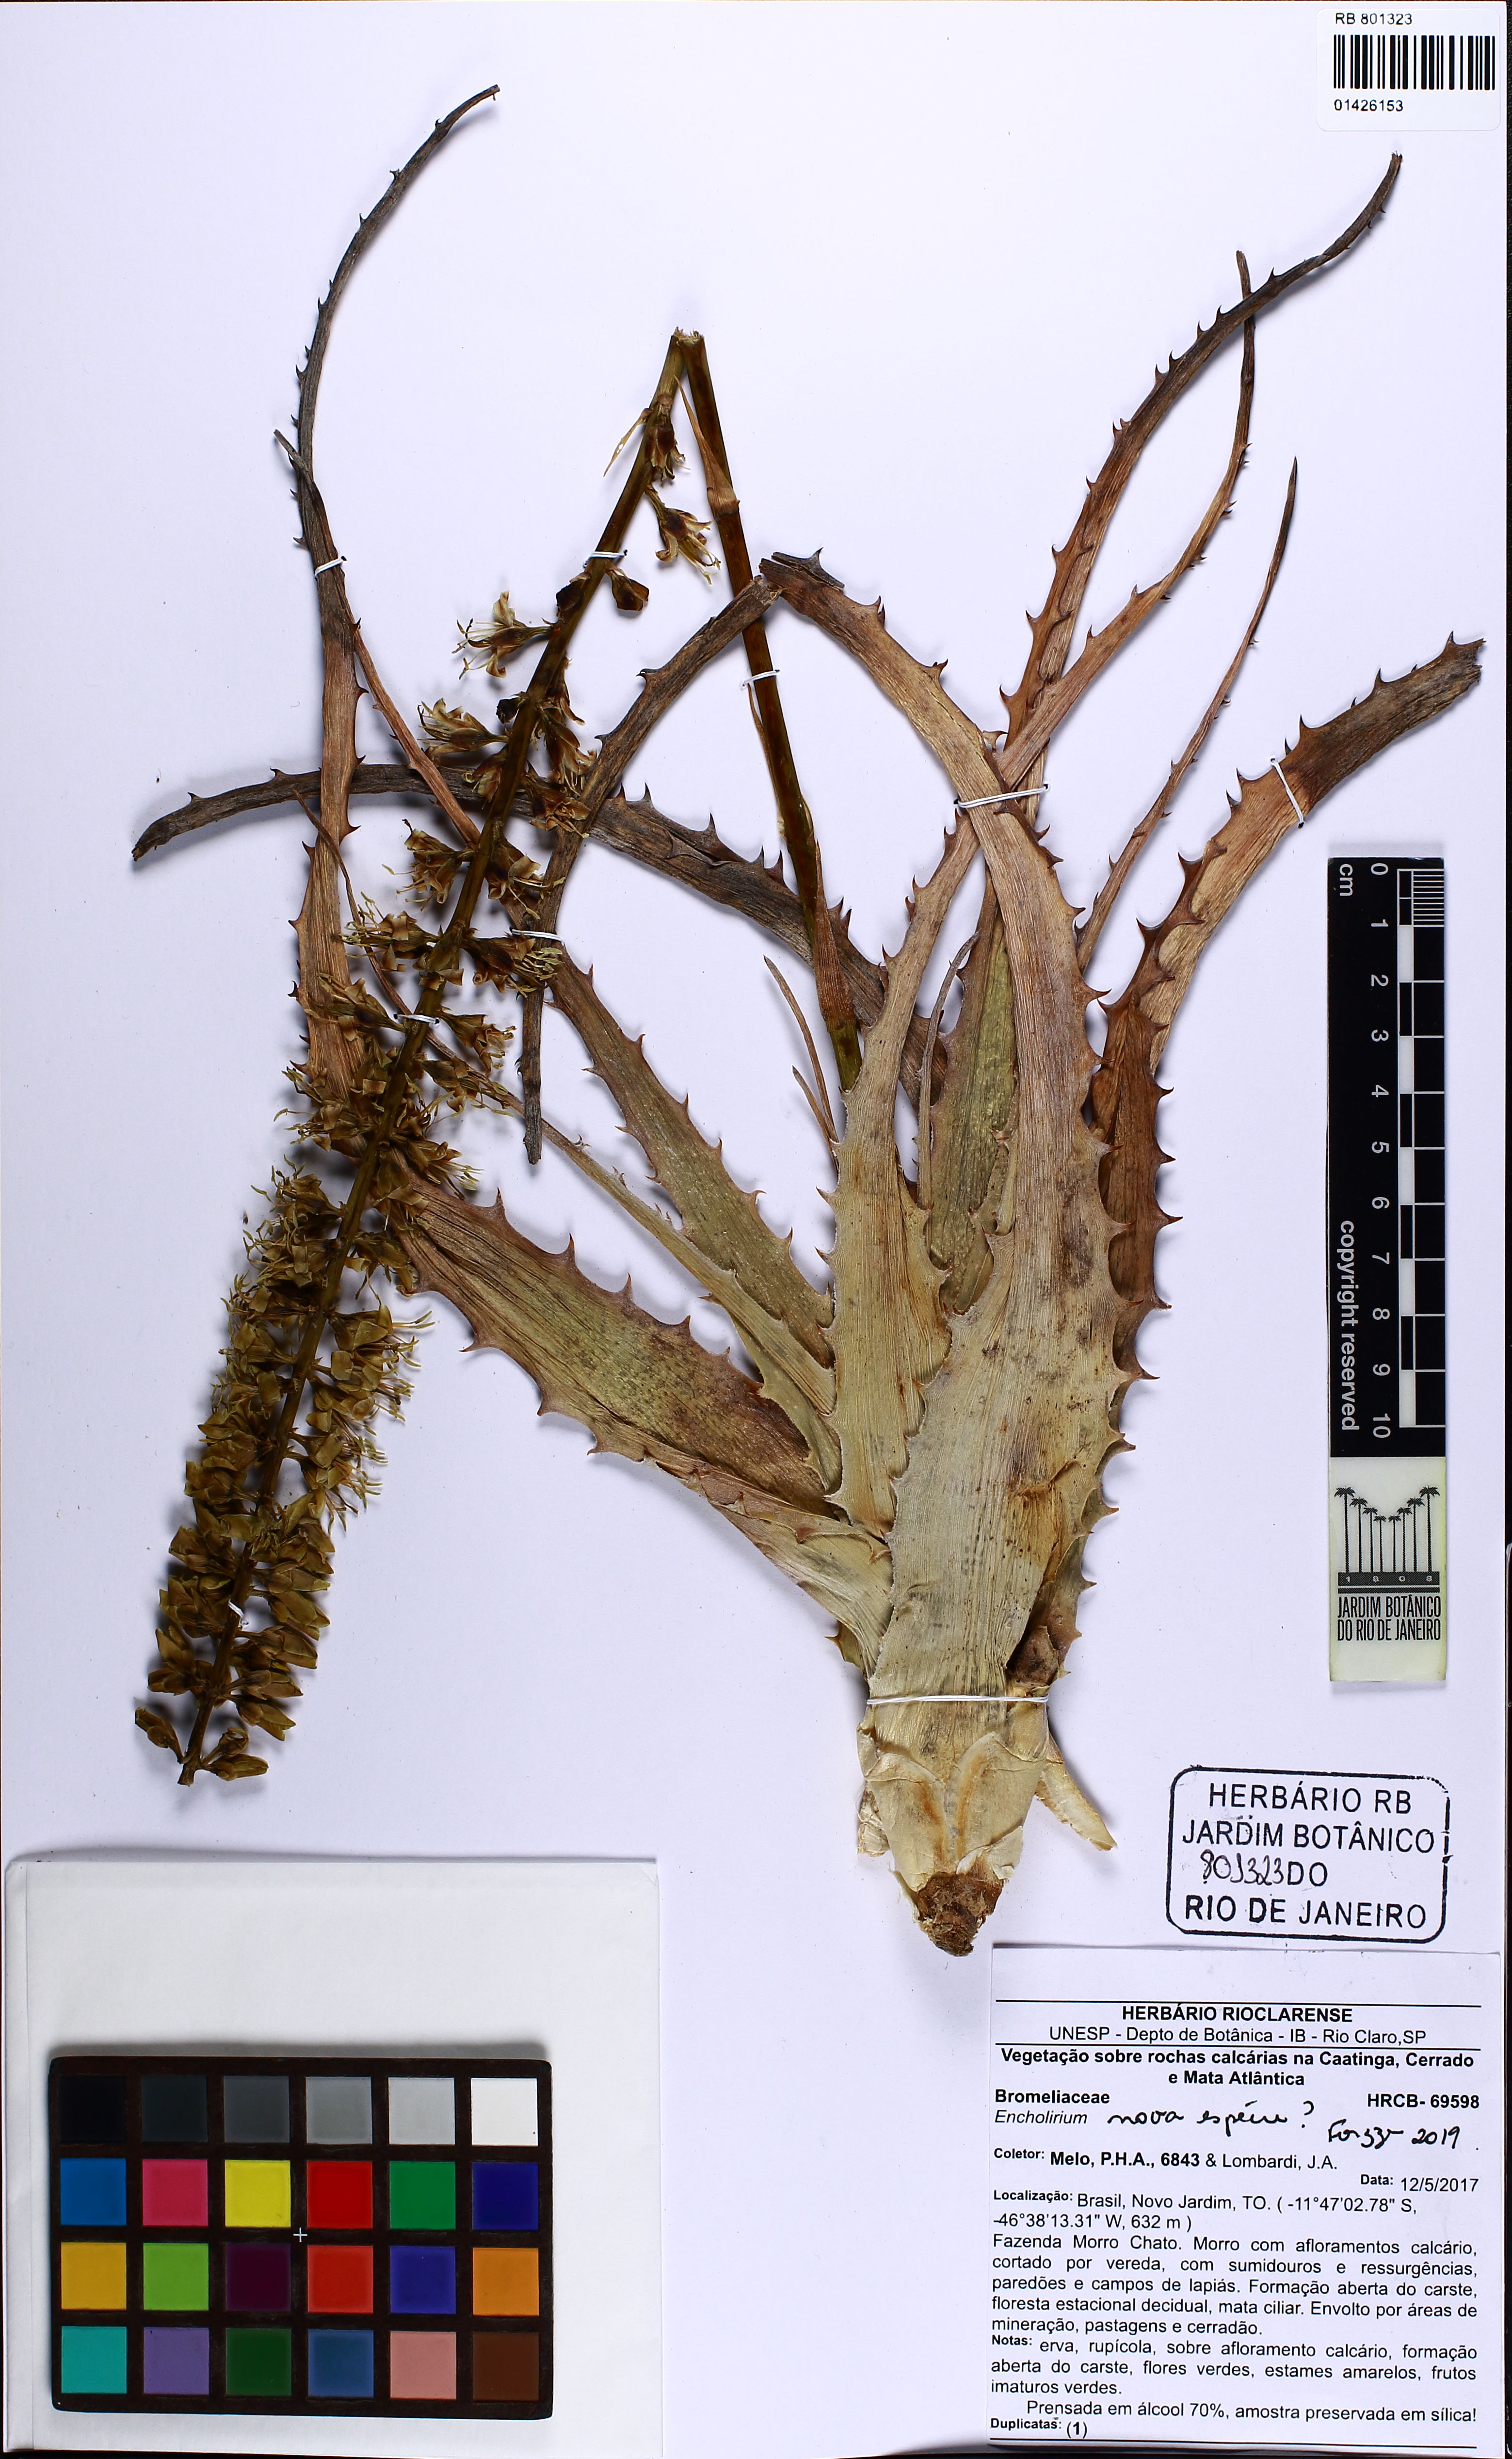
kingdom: Plantae
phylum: Tracheophyta
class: Liliopsida
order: Poales
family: Bromeliaceae
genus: Encholirium
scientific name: Encholirium
